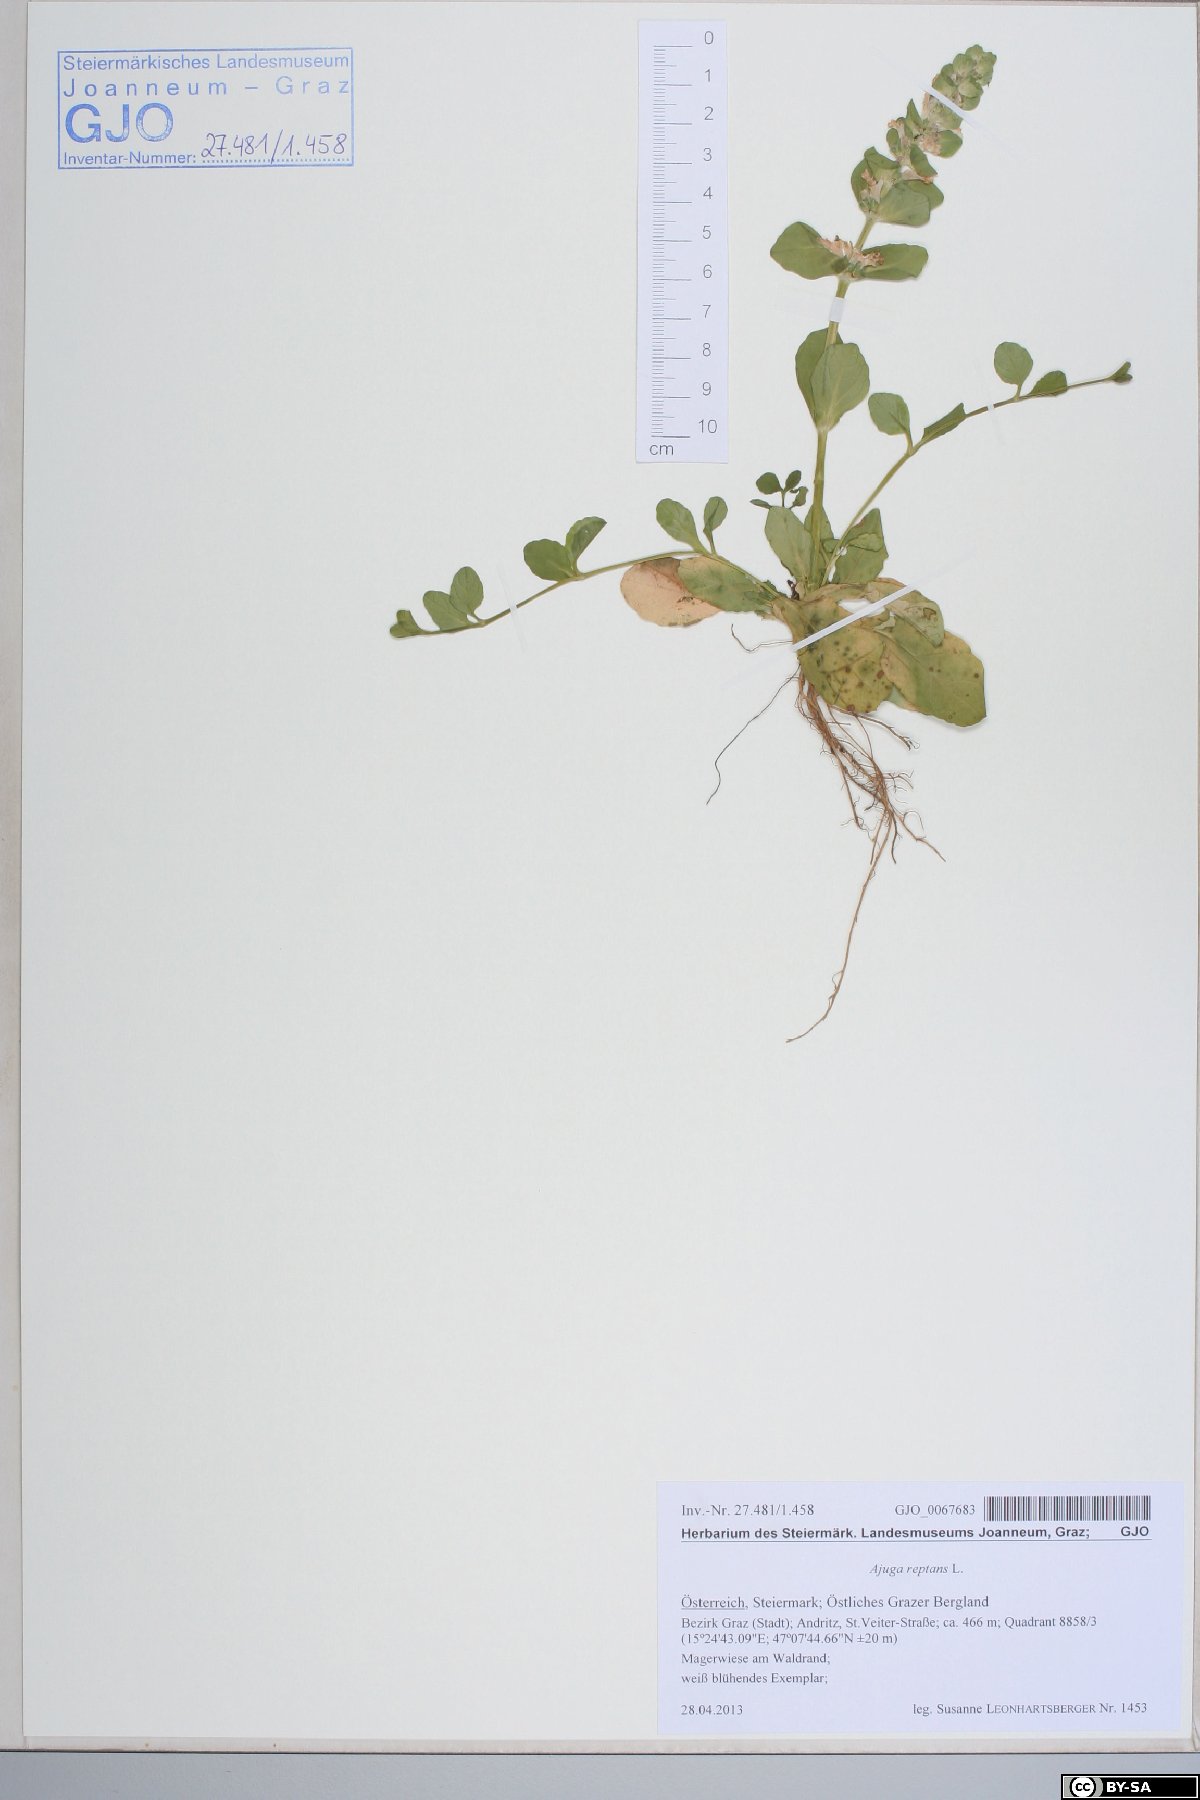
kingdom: Plantae
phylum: Tracheophyta
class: Magnoliopsida
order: Lamiales
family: Lamiaceae
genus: Ajuga
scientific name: Ajuga reptans
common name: Bugle
